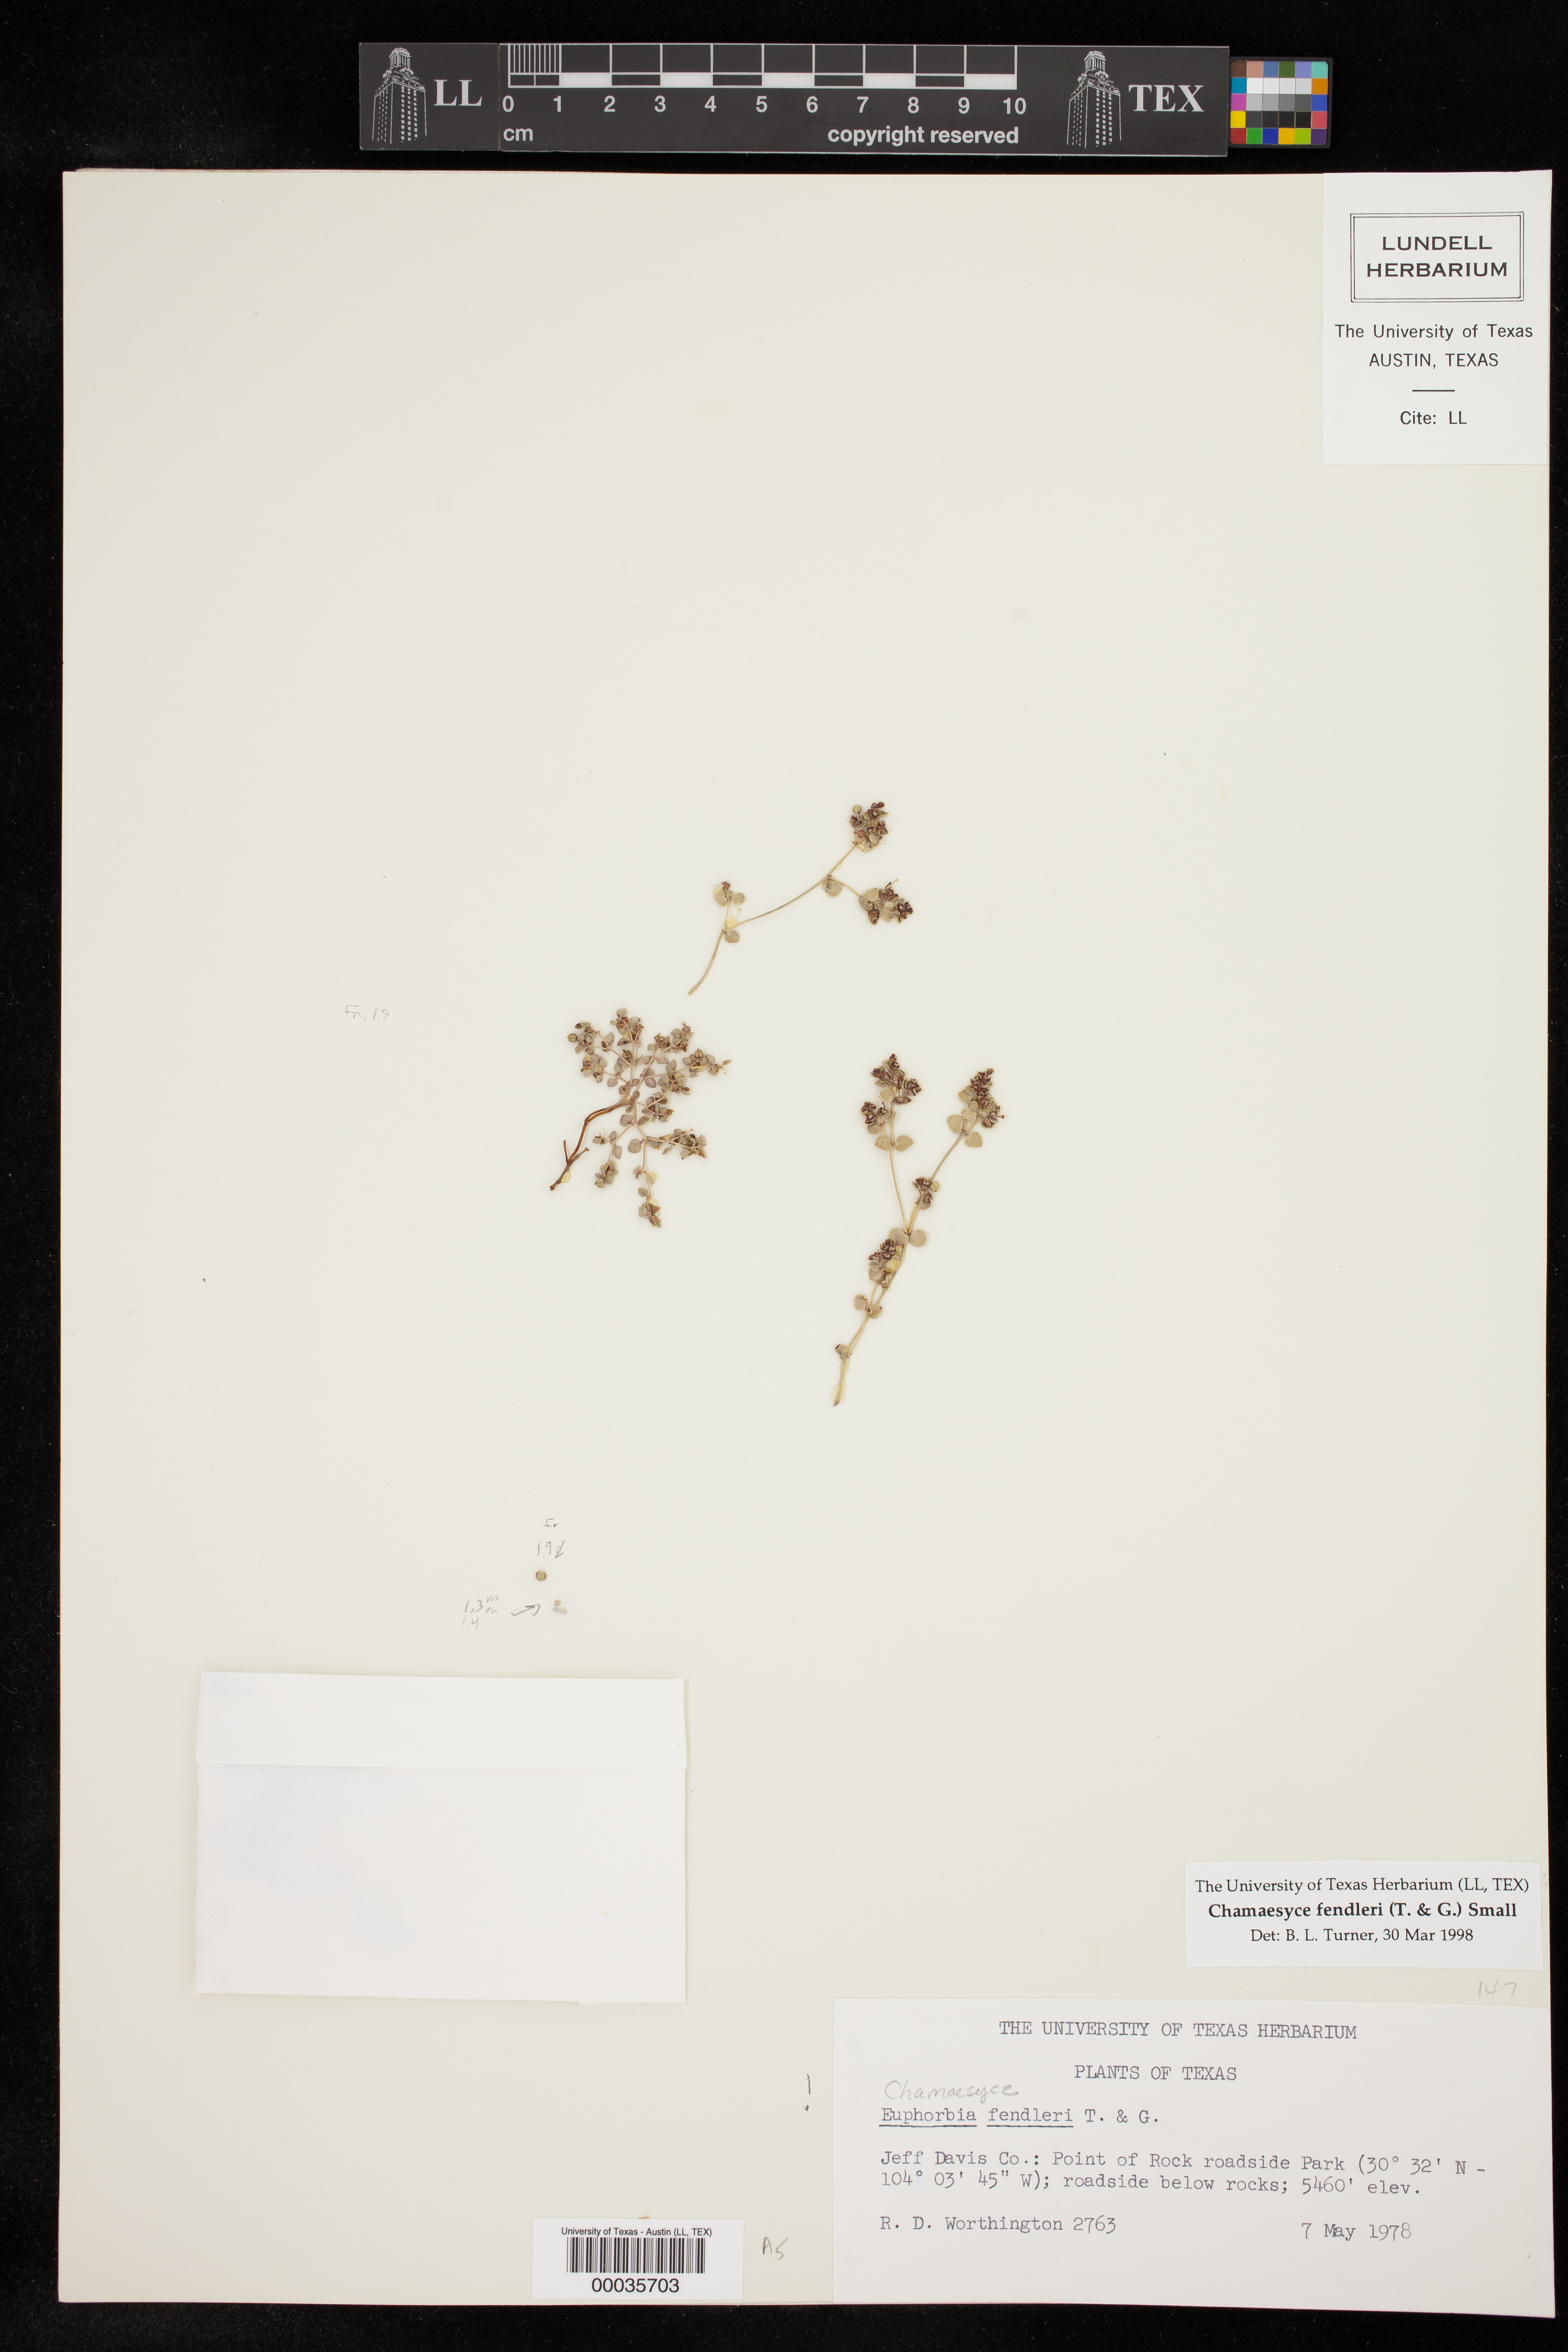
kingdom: Plantae
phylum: Tracheophyta
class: Magnoliopsida
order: Malpighiales
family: Euphorbiaceae
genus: Euphorbia
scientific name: Euphorbia fendleri
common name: Fendler's euphorbia
